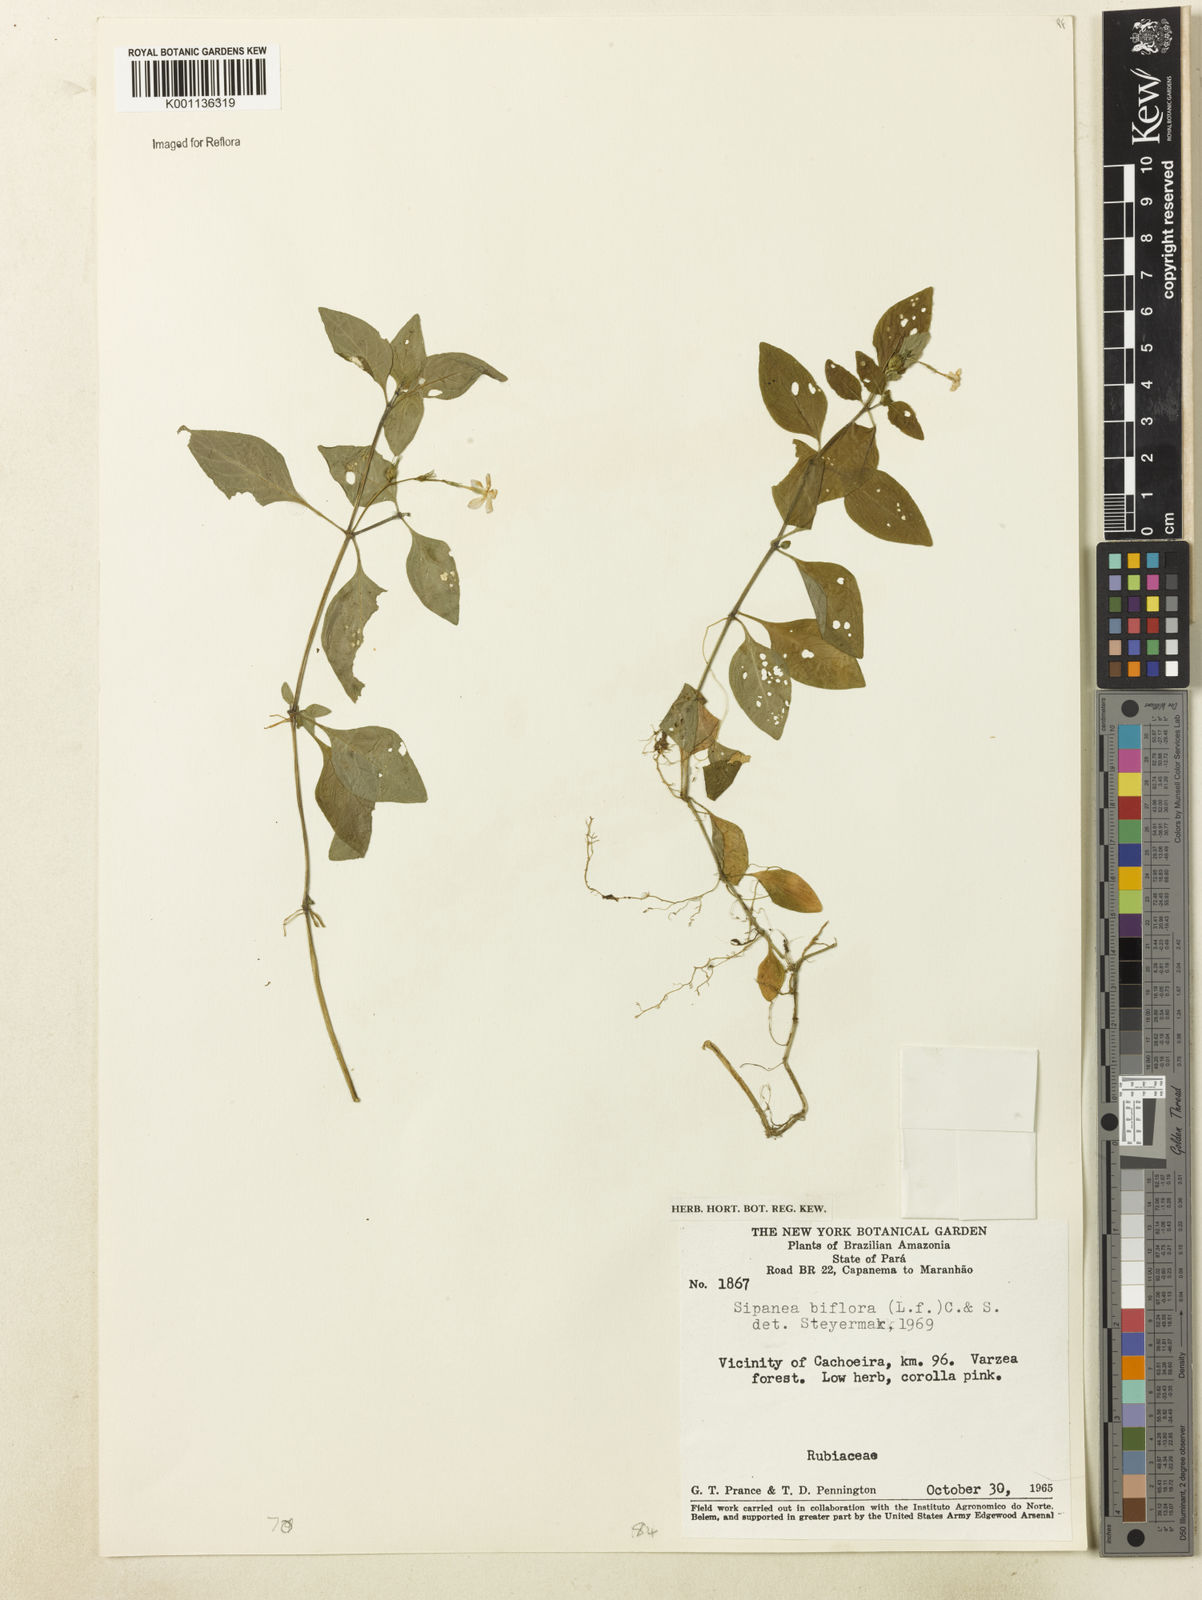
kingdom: Plantae
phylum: Tracheophyta
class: Magnoliopsida
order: Gentianales
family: Rubiaceae
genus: Sipanea
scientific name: Sipanea biflora
